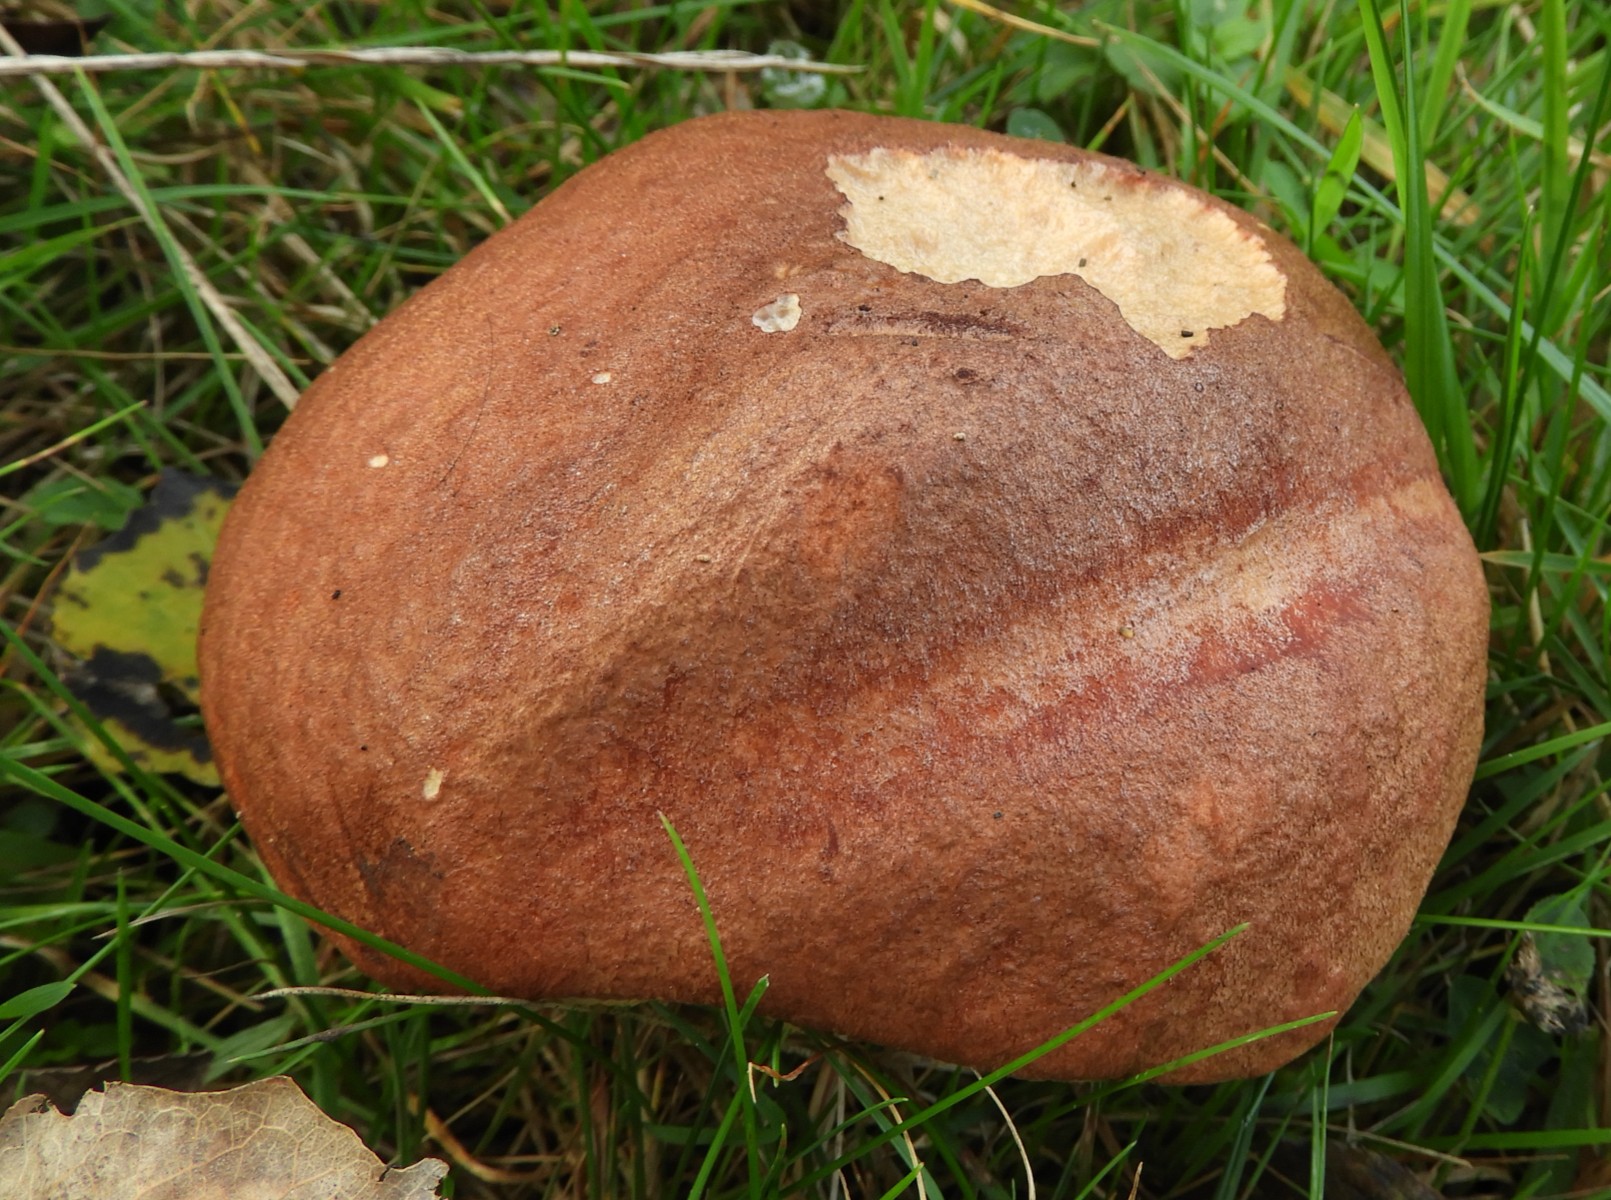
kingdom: Fungi
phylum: Basidiomycota
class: Agaricomycetes
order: Boletales
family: Boletaceae
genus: Leccinum
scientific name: Leccinum
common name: skælrørhat
